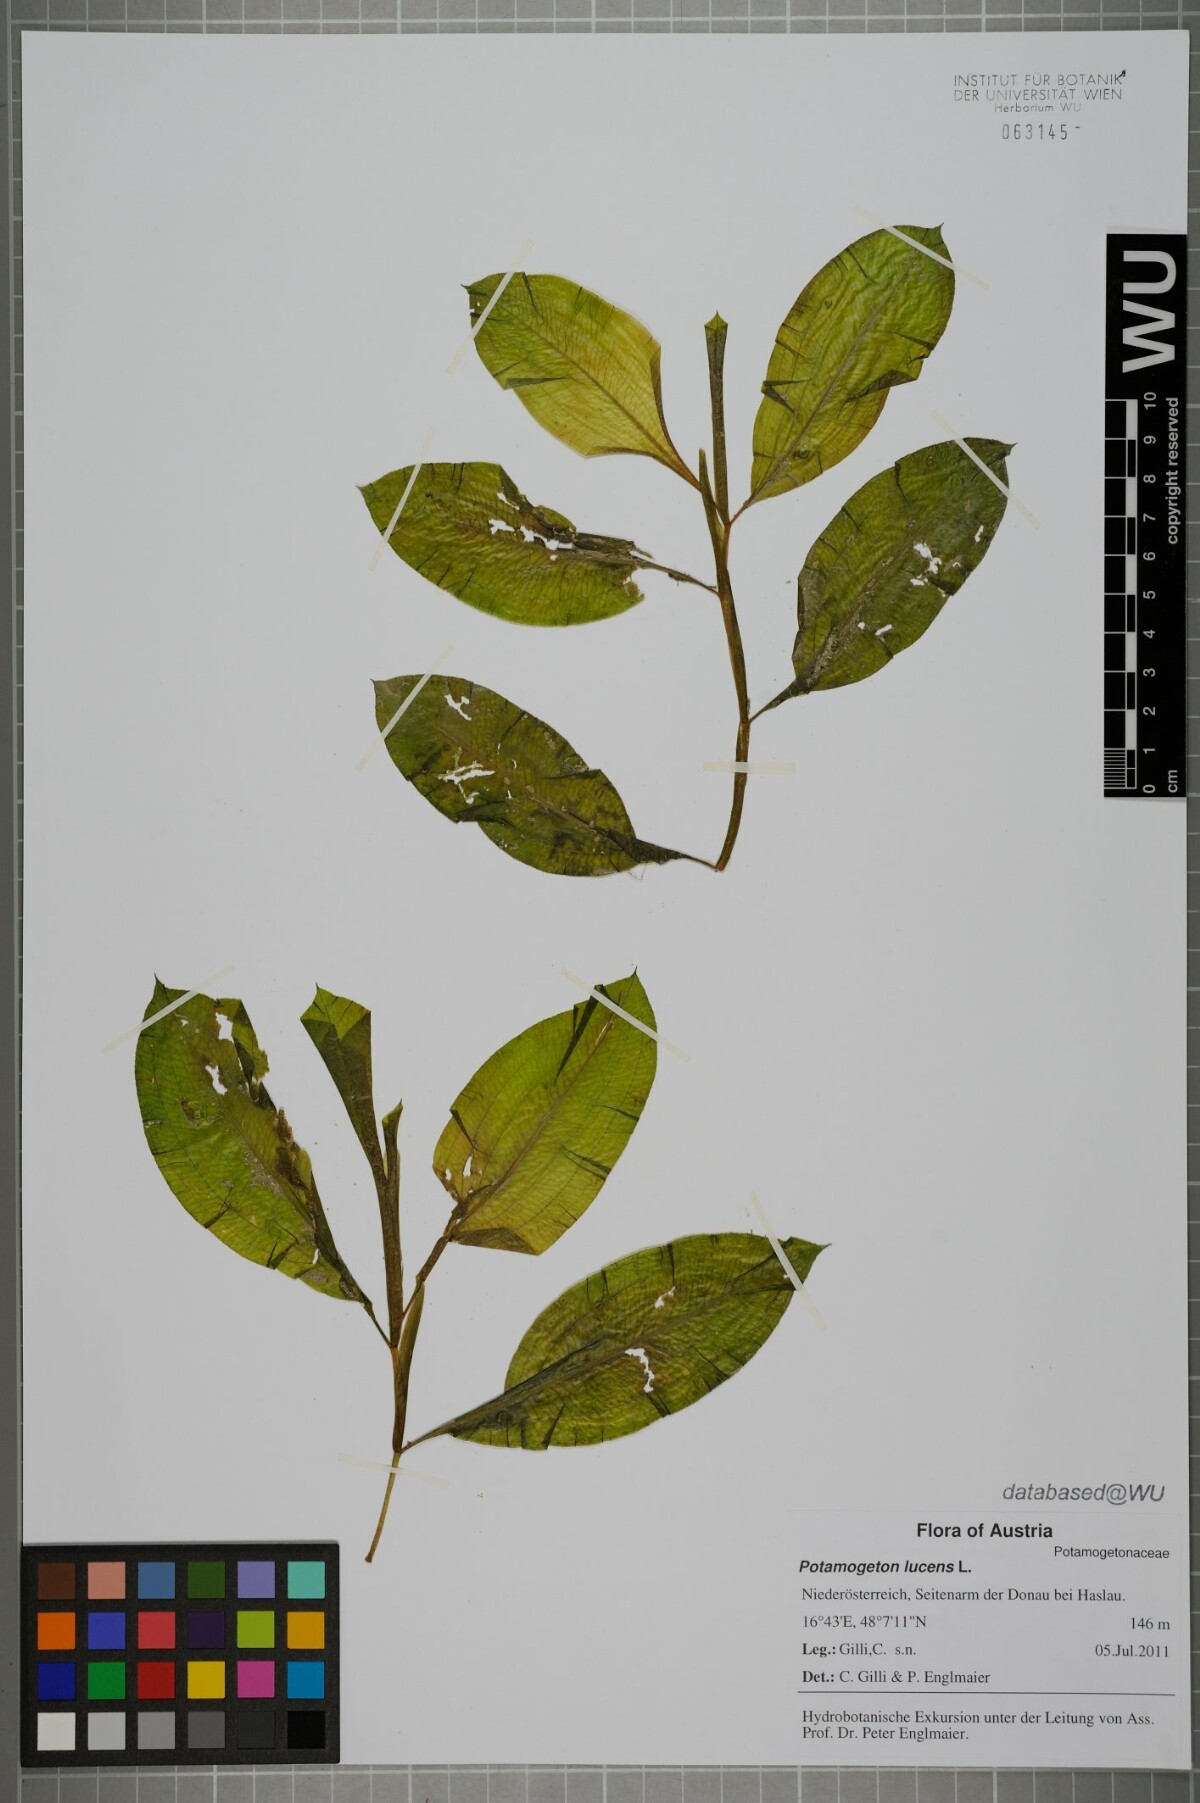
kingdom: Plantae
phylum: Tracheophyta
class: Liliopsida
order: Alismatales
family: Potamogetonaceae
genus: Potamogeton
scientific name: Potamogeton lucens
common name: Shining pondweed
